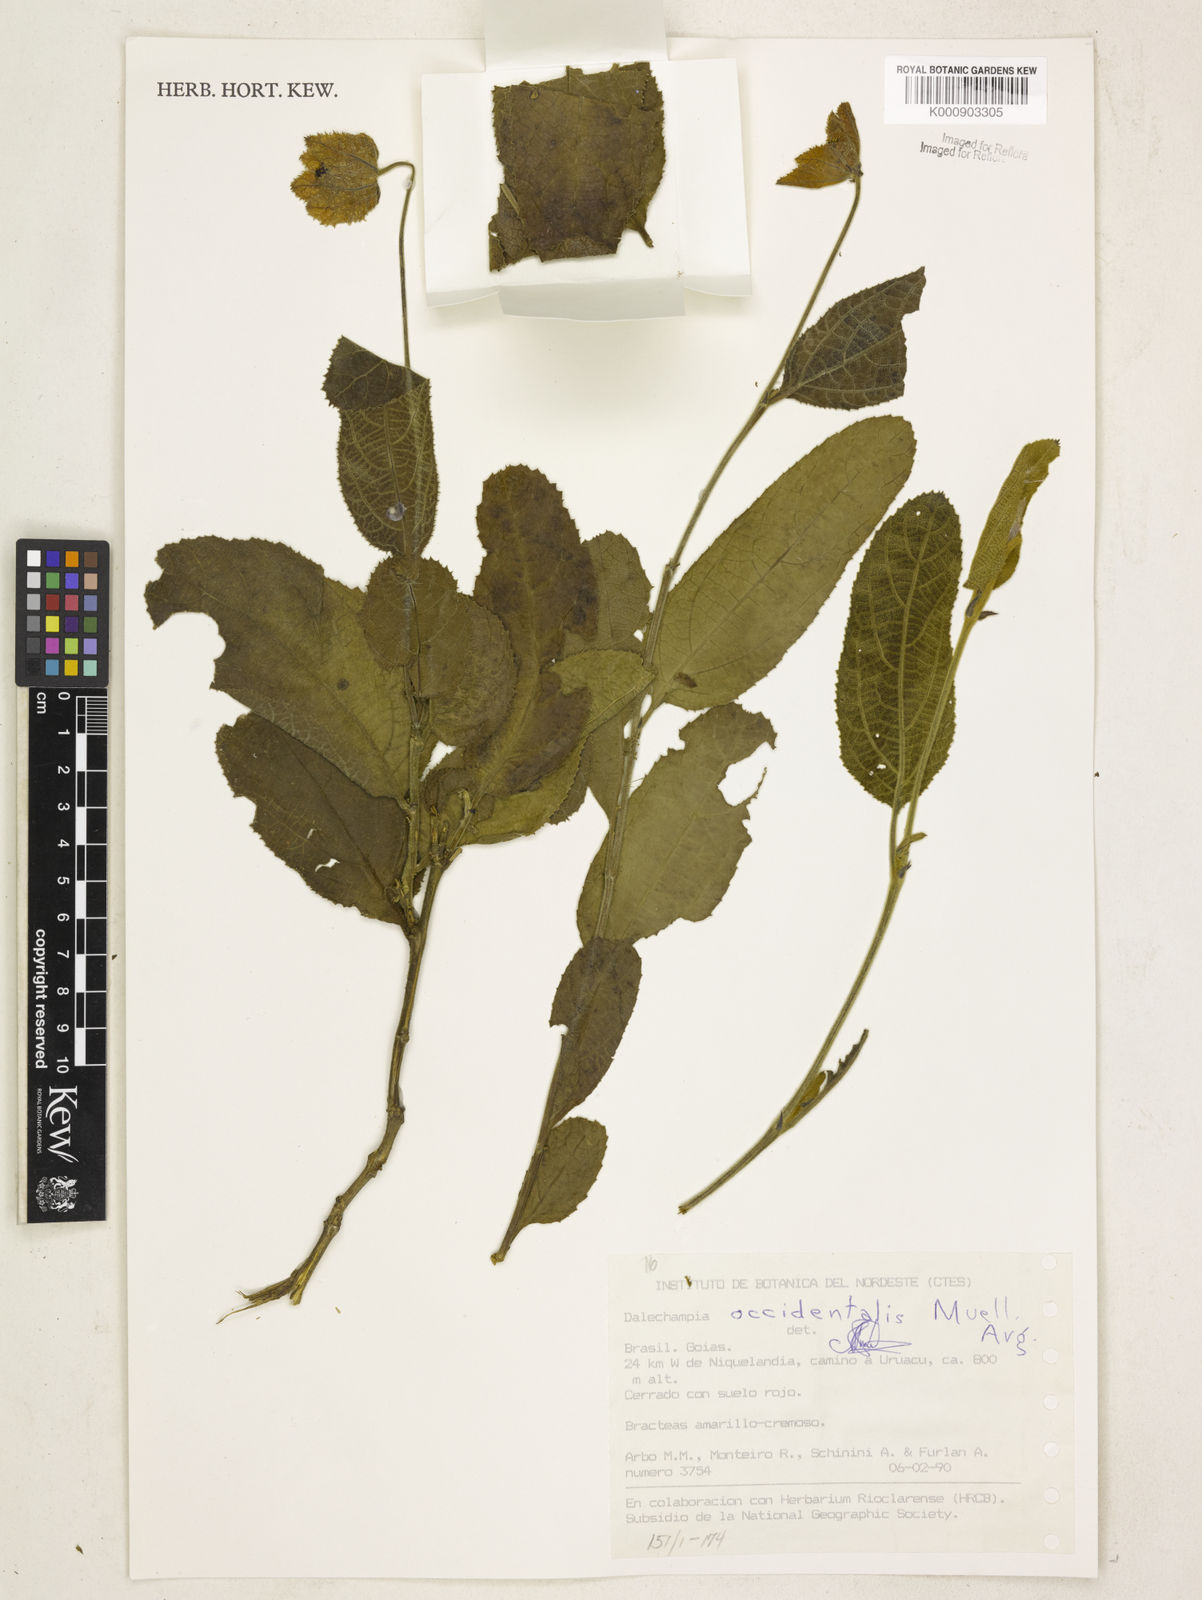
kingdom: Plantae
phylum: Tracheophyta
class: Magnoliopsida
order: Malpighiales
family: Euphorbiaceae
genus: Dalechampia
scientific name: Dalechampia
